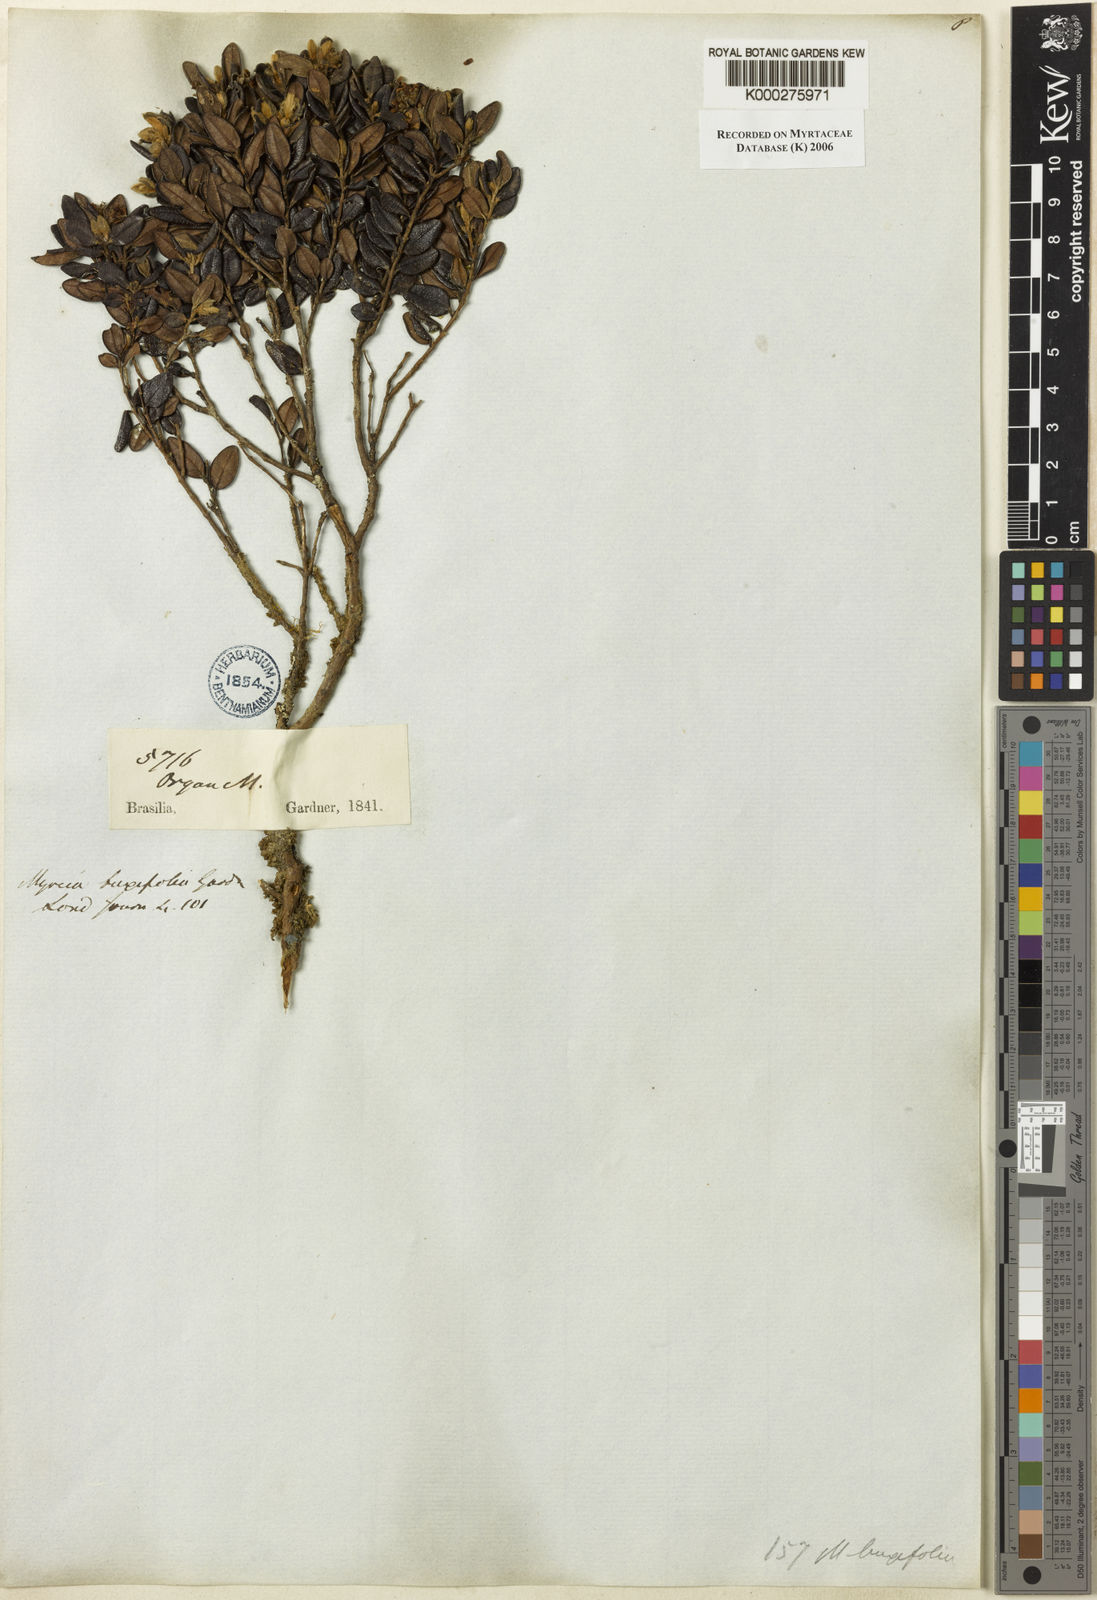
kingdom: Plantae
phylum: Tracheophyta
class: Magnoliopsida
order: Myrtales
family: Myrtaceae
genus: Myrcia
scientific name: Myrcia montana
